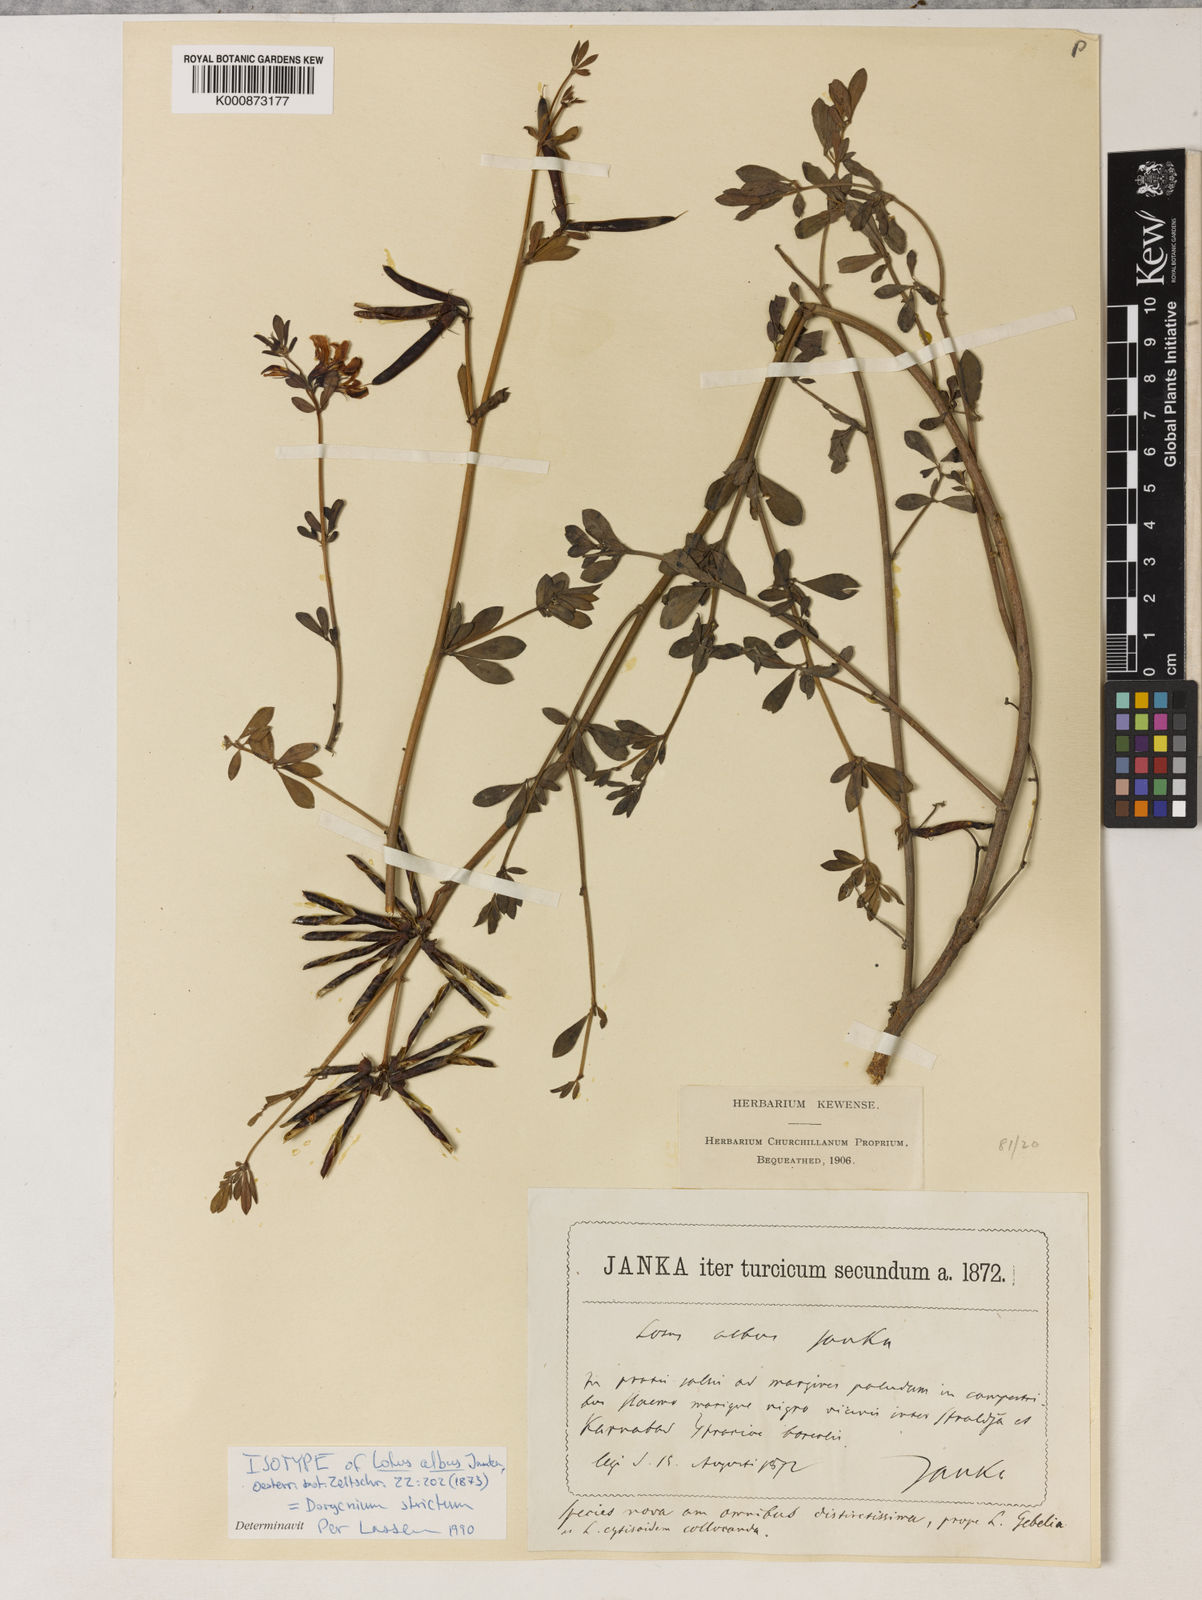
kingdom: Plantae
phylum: Tracheophyta
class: Magnoliopsida
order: Fabales
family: Fabaceae
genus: Lotus
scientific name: Lotus strictus
